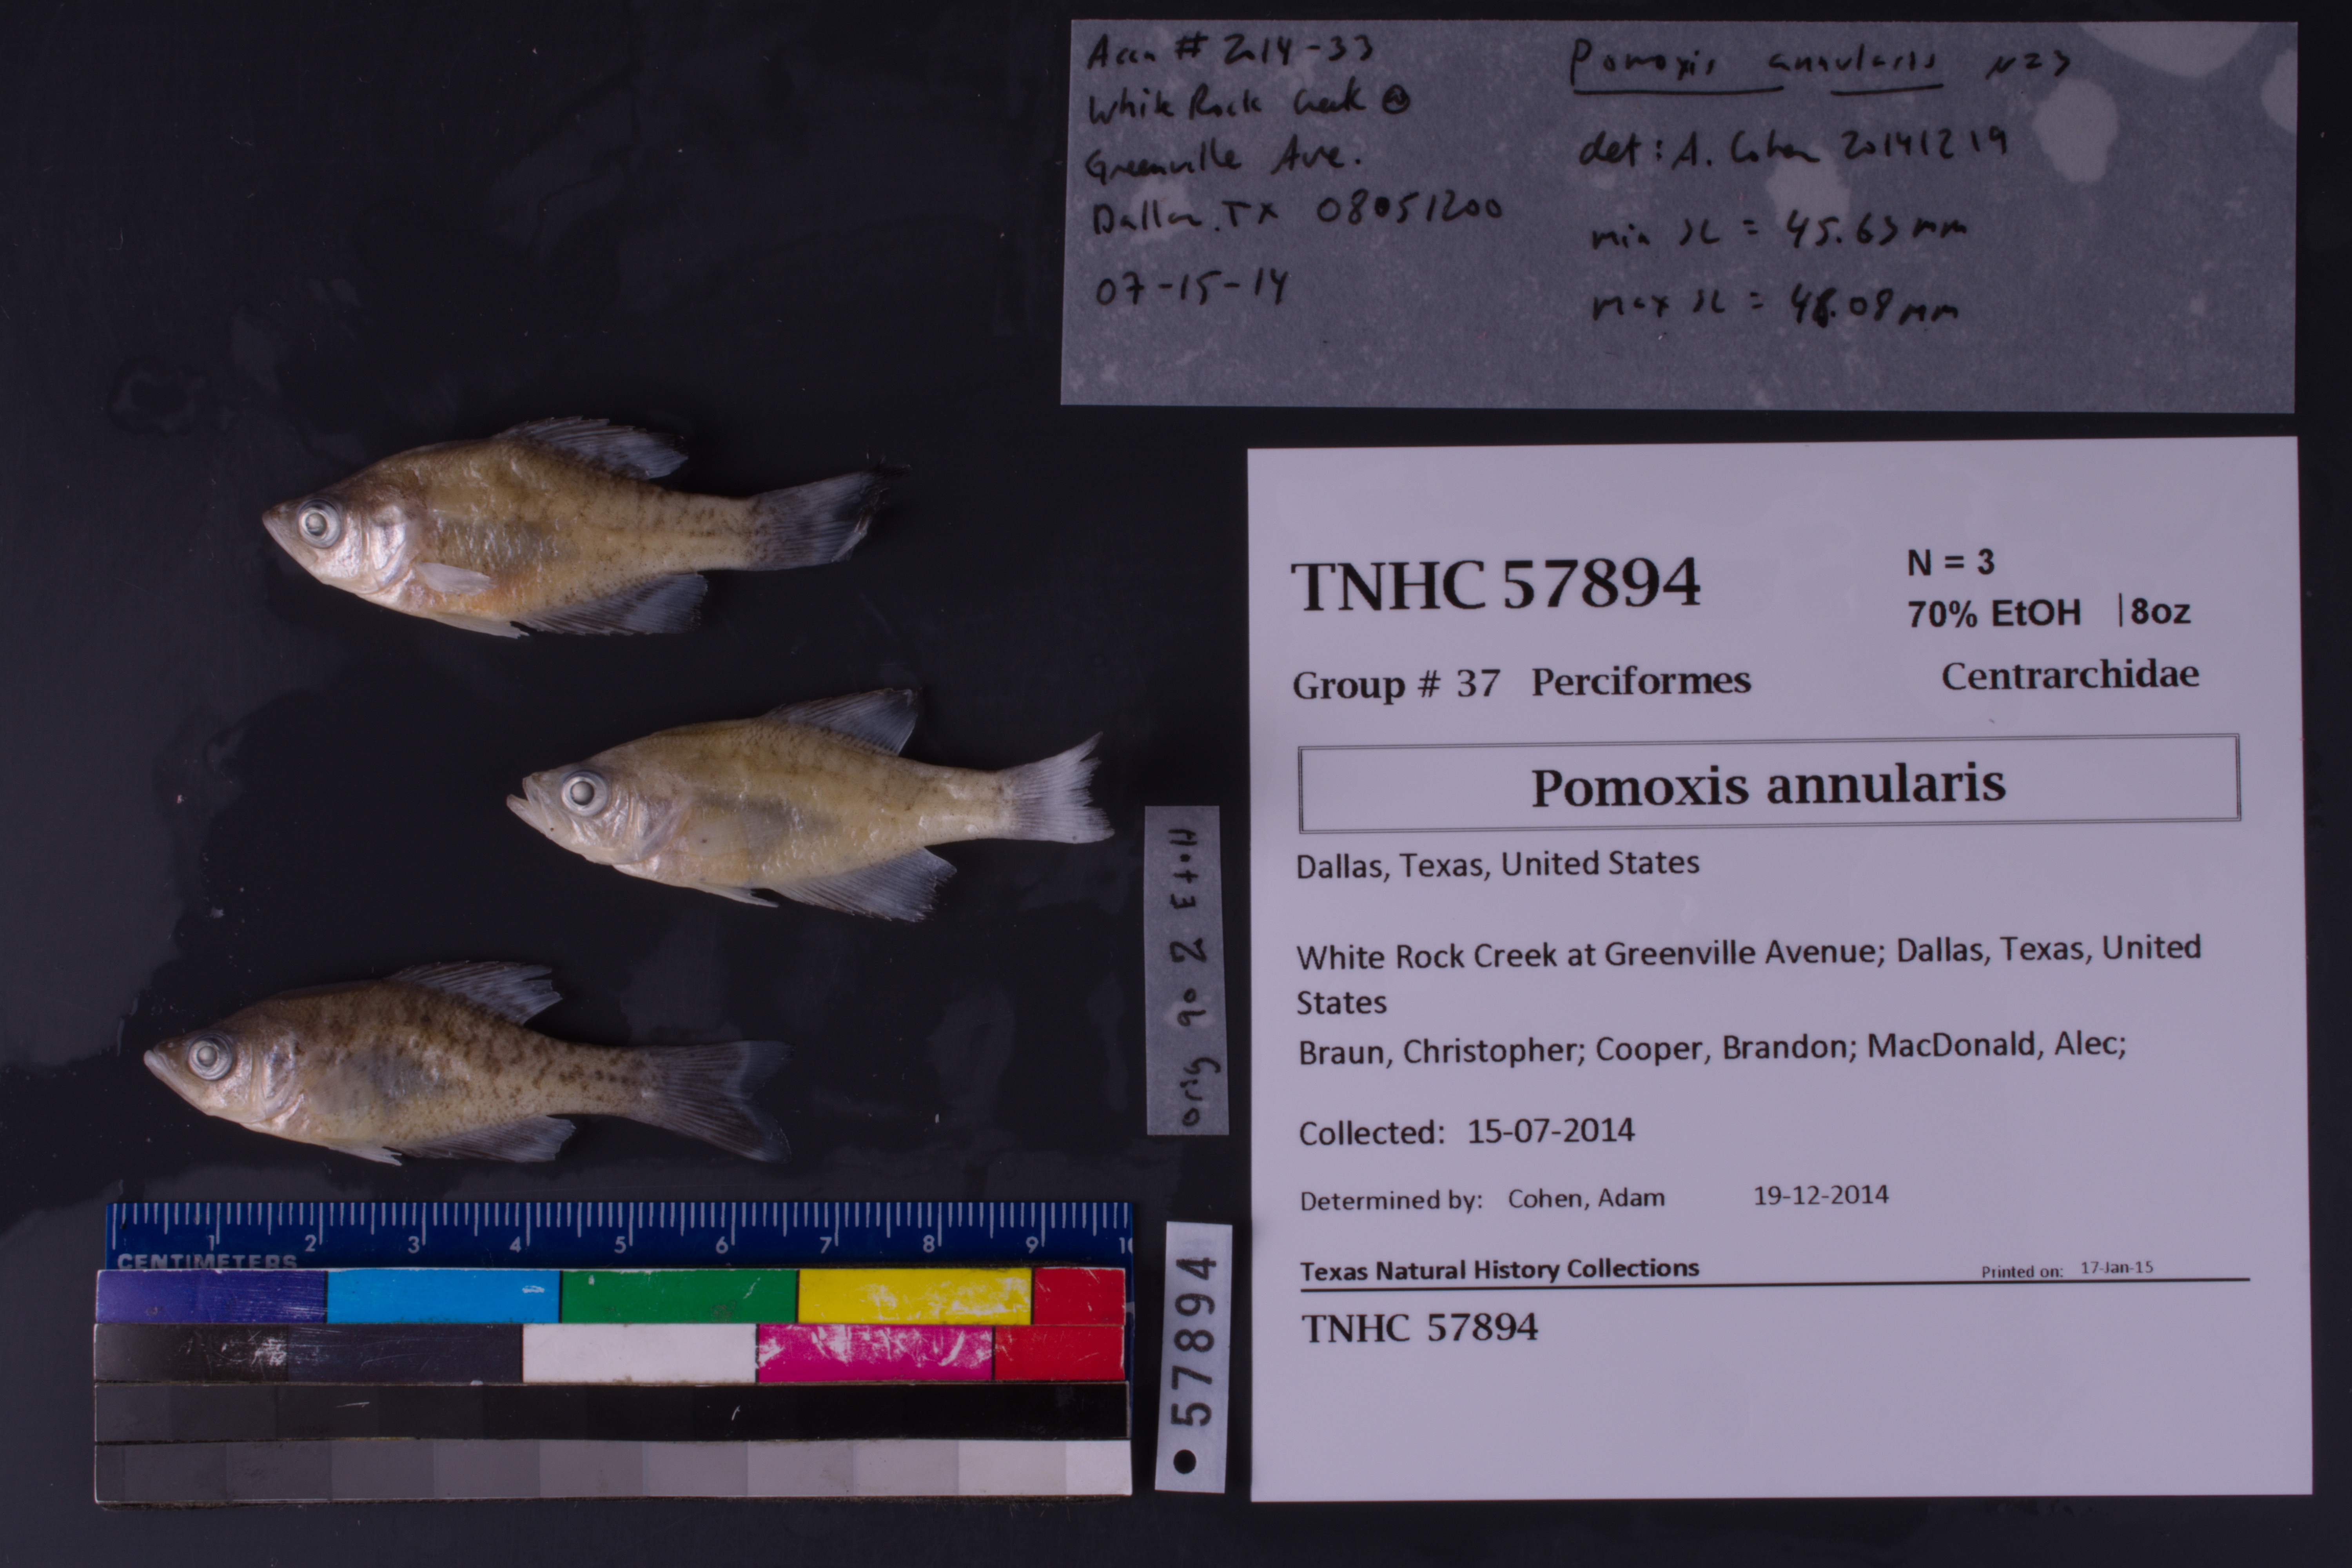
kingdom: Animalia
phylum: Chordata
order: Perciformes
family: Centrarchidae
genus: Pomoxis
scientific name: Pomoxis annularis
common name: White crappie
